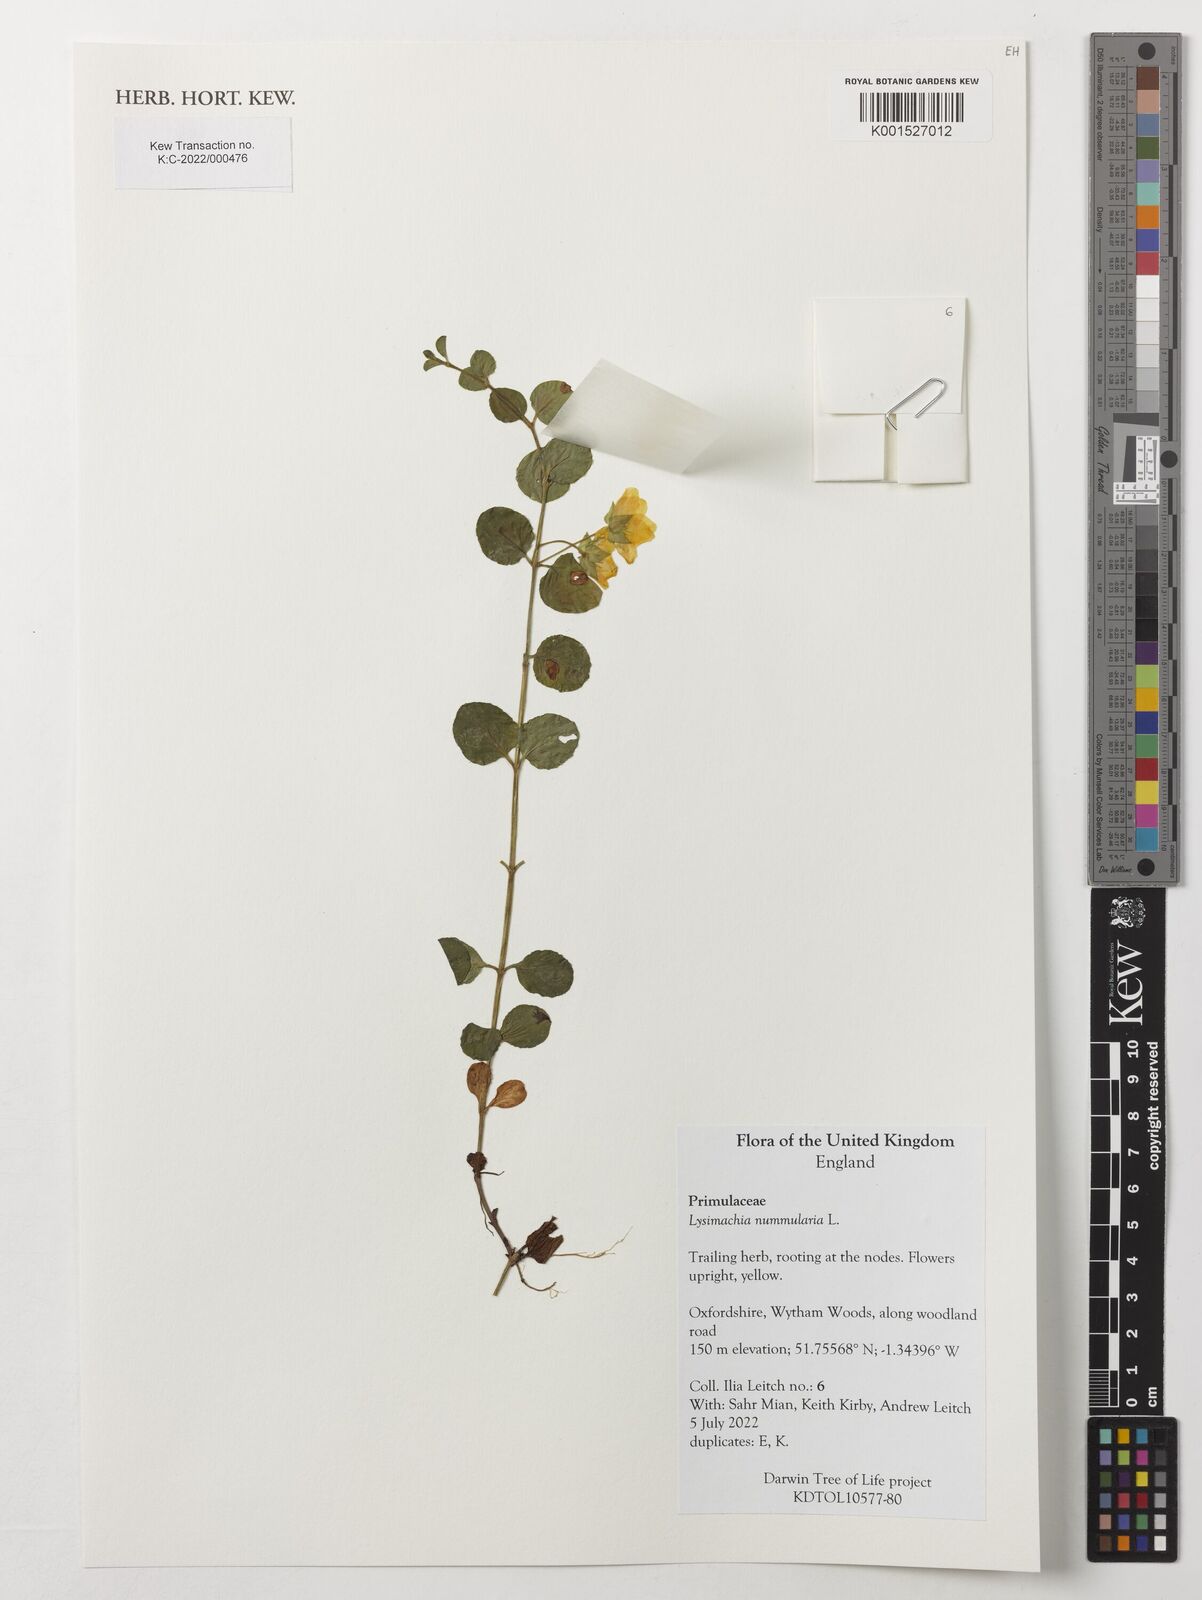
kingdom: Plantae
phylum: Tracheophyta
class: Magnoliopsida
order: Ericales
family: Primulaceae
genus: Lysimachia
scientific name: Lysimachia nummularia
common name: Moneywort
